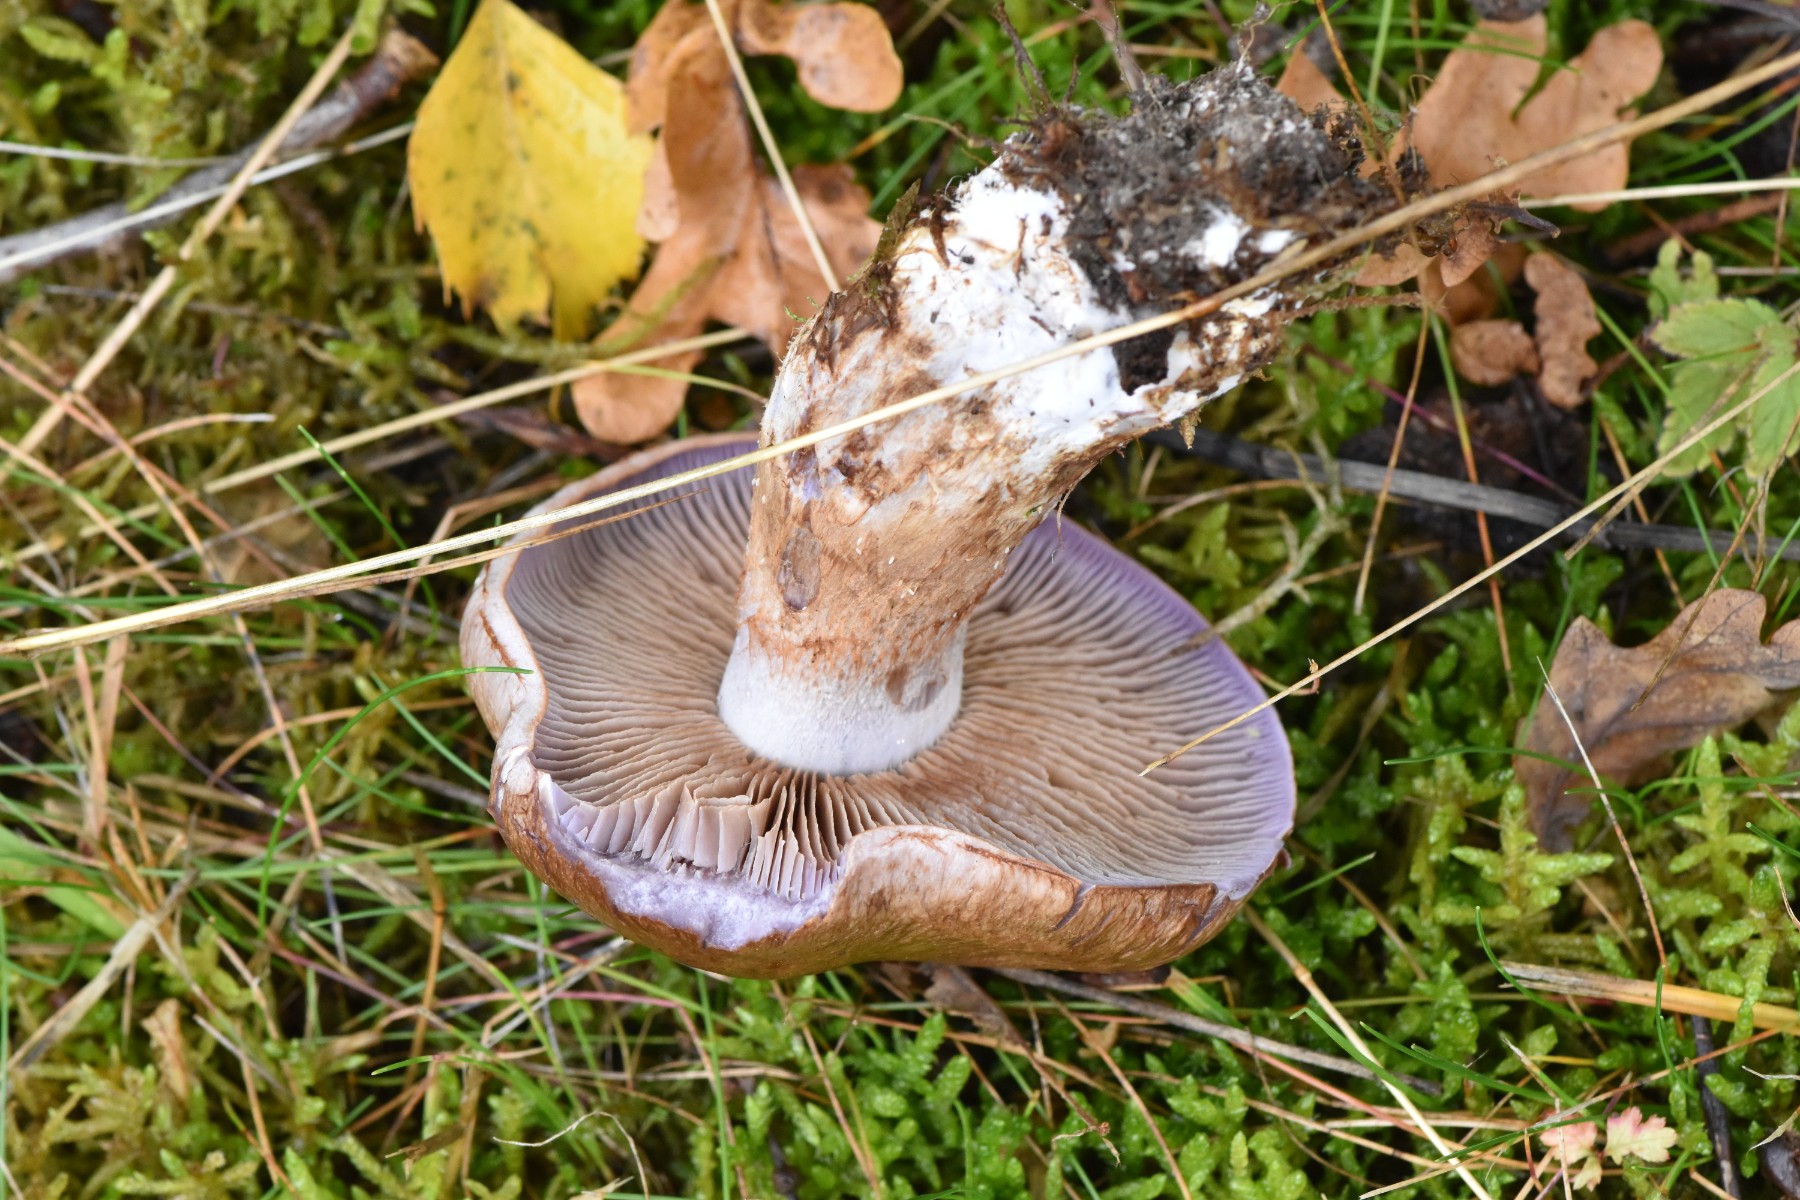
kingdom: Fungi
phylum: Basidiomycota
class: Agaricomycetes
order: Agaricales
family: Cortinariaceae
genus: Cortinarius
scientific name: Cortinarius largus
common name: violetrandet slørhat
